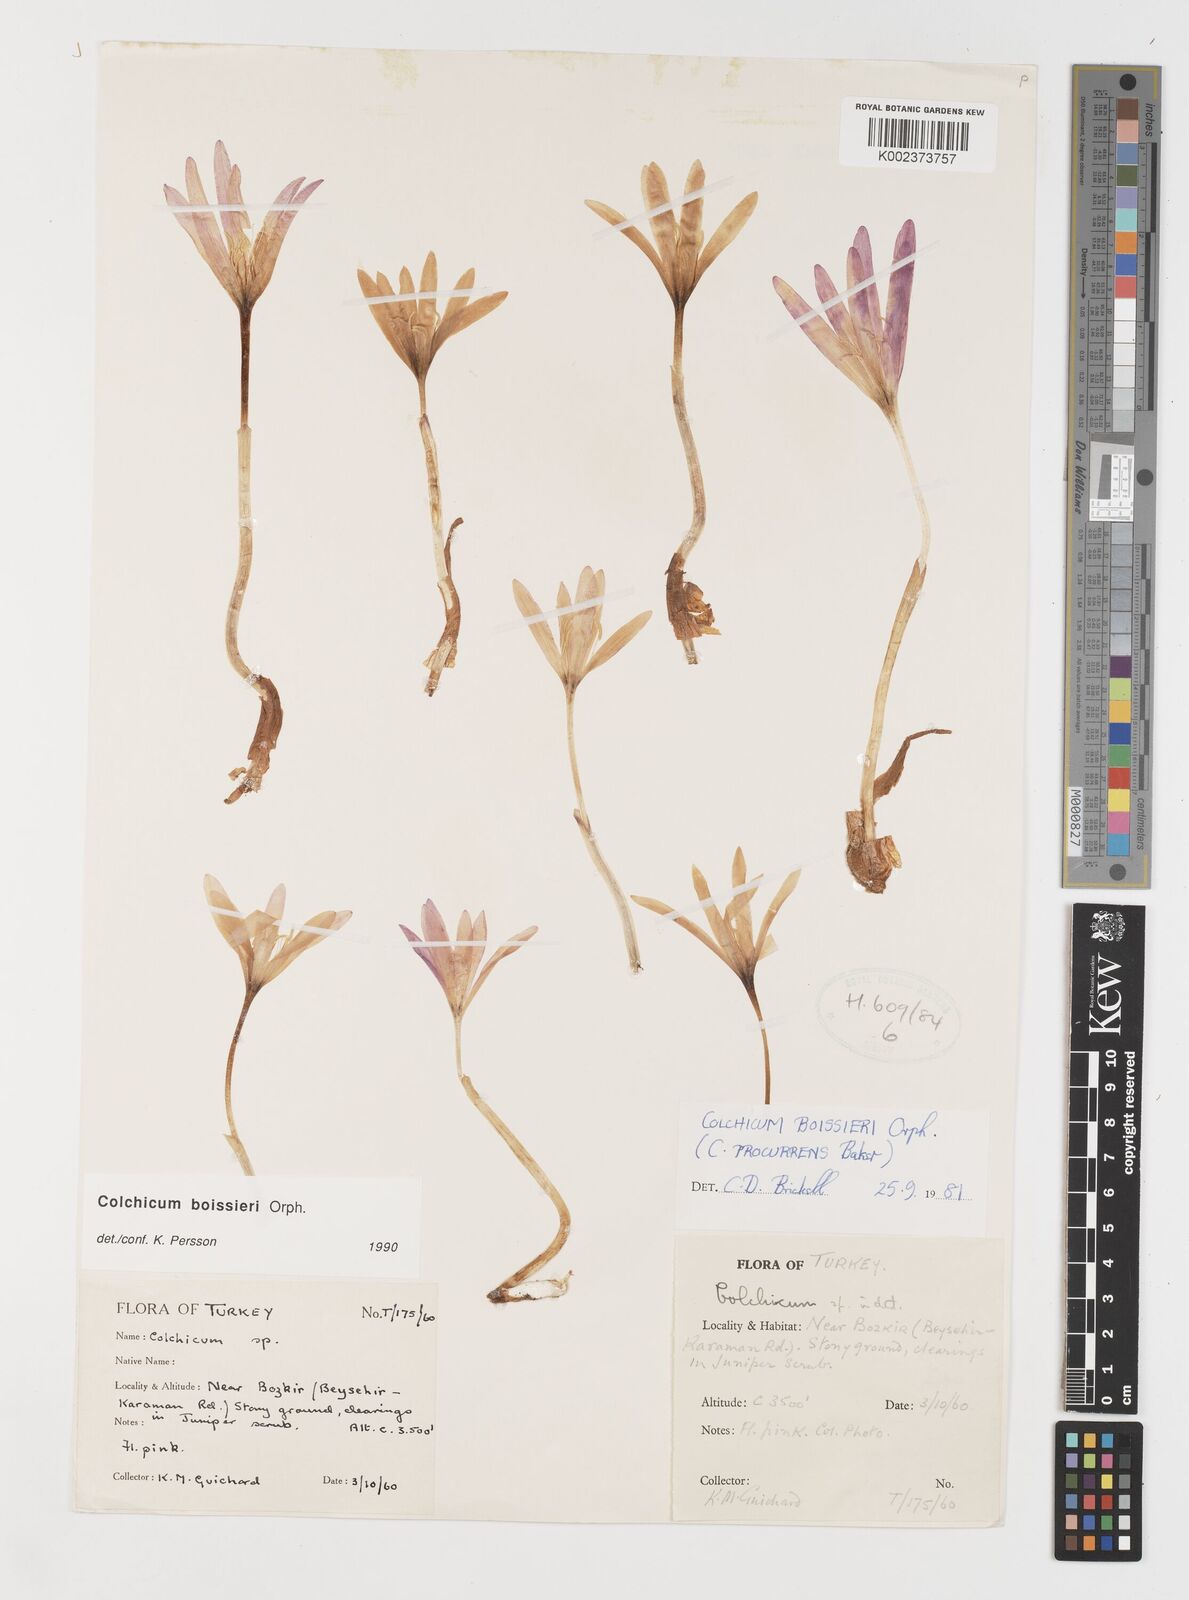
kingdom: Plantae
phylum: Tracheophyta
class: Liliopsida
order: Liliales
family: Colchicaceae
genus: Colchicum
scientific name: Colchicum boissieri
